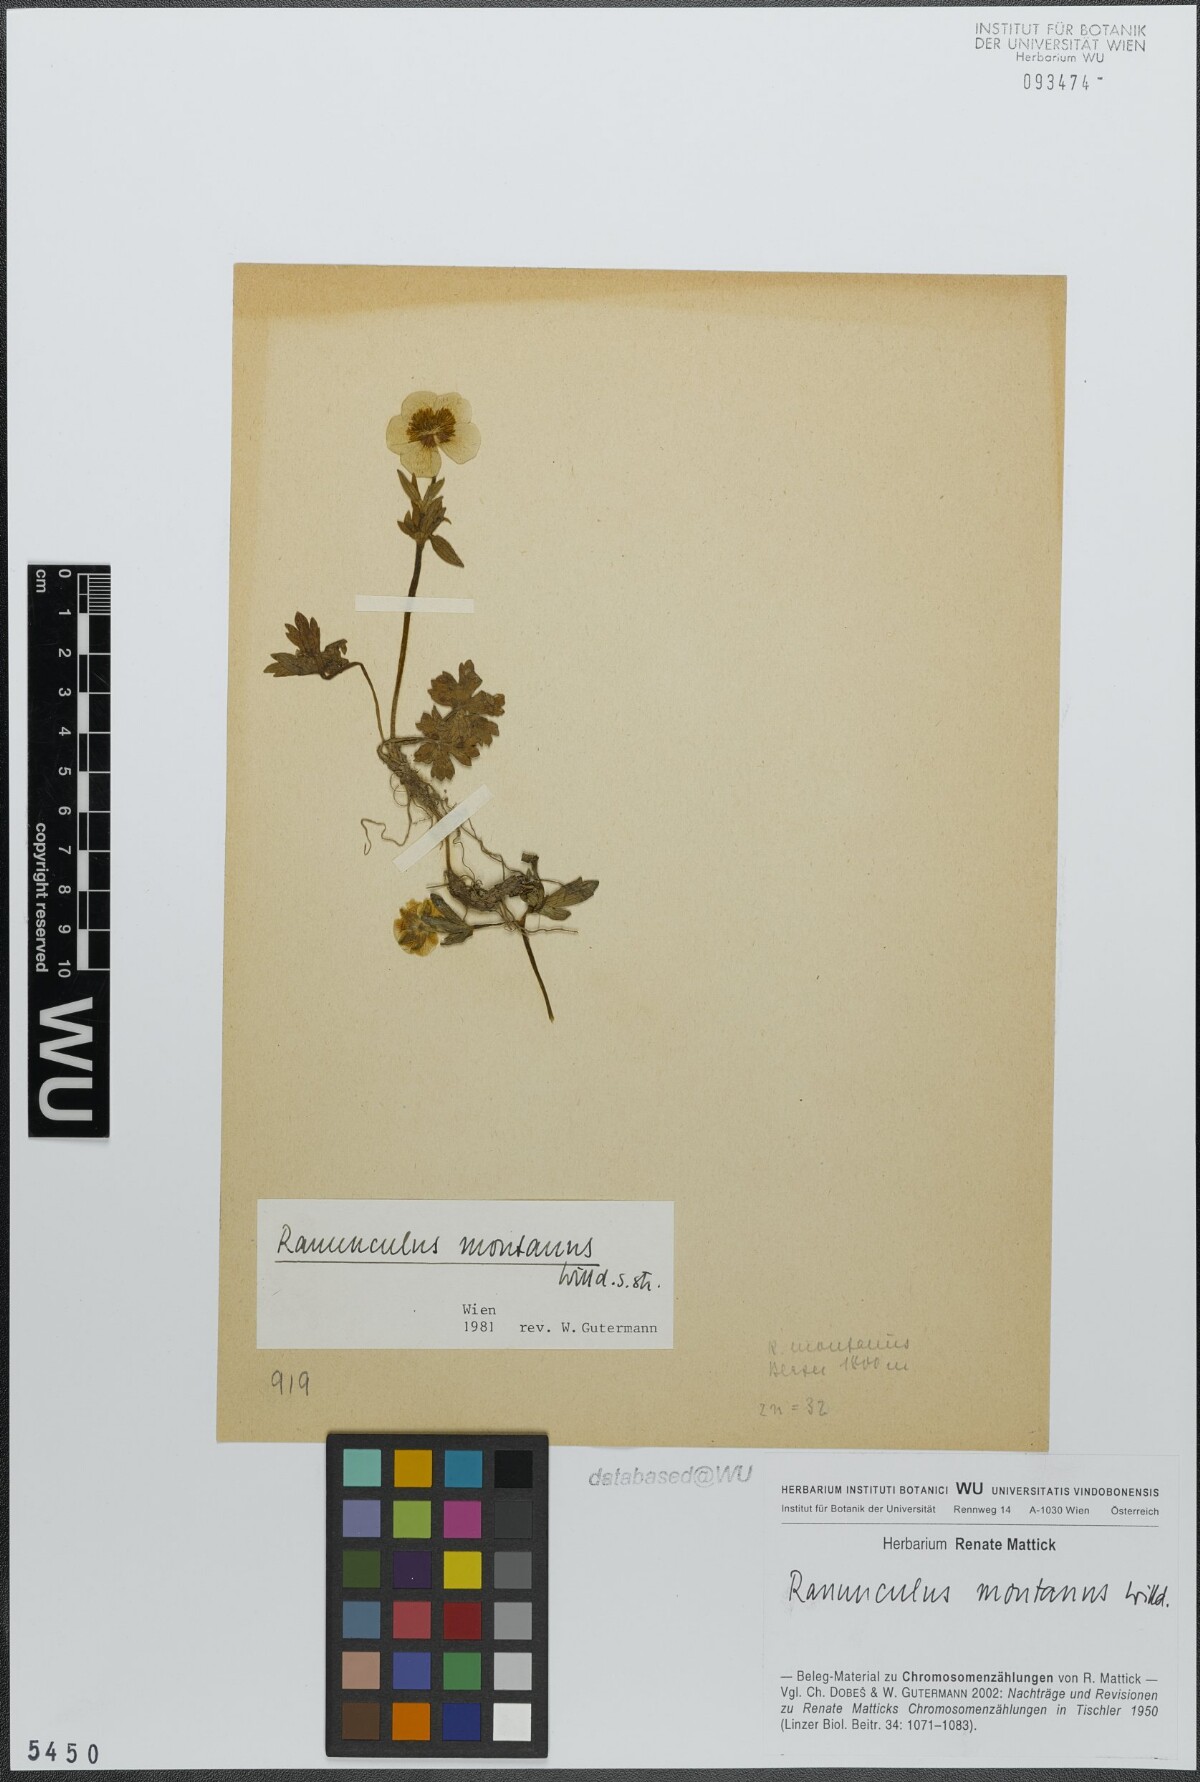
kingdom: Plantae
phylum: Tracheophyta
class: Magnoliopsida
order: Ranunculales
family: Ranunculaceae
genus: Ranunculus
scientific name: Ranunculus montanus
